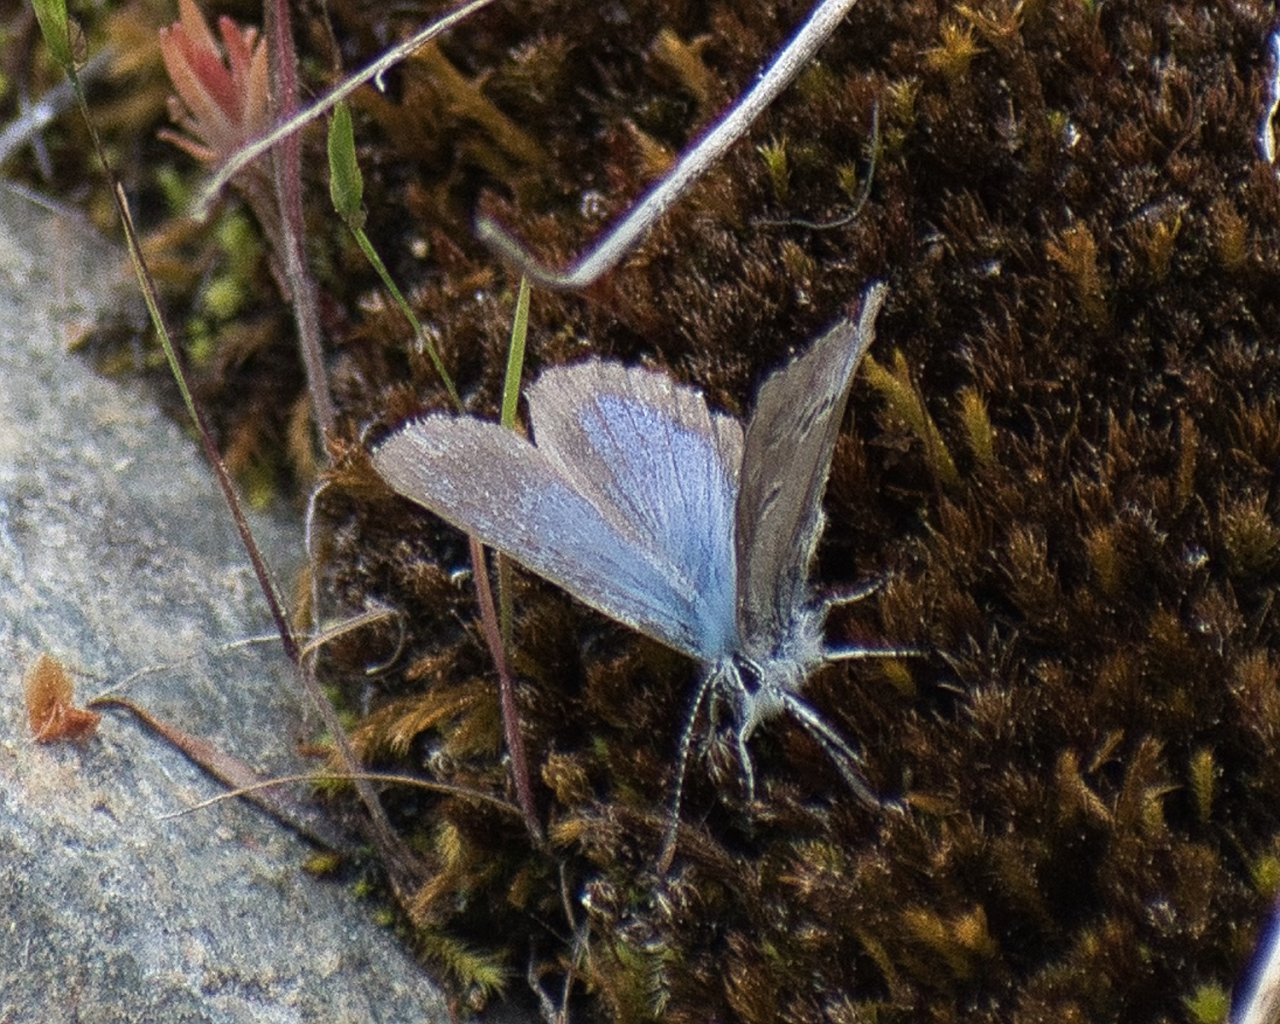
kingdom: Animalia
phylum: Arthropoda
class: Insecta
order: Lepidoptera
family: Lycaenidae
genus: Icaricia
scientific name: Icaricia icarioides
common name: Boisduval's Blue
